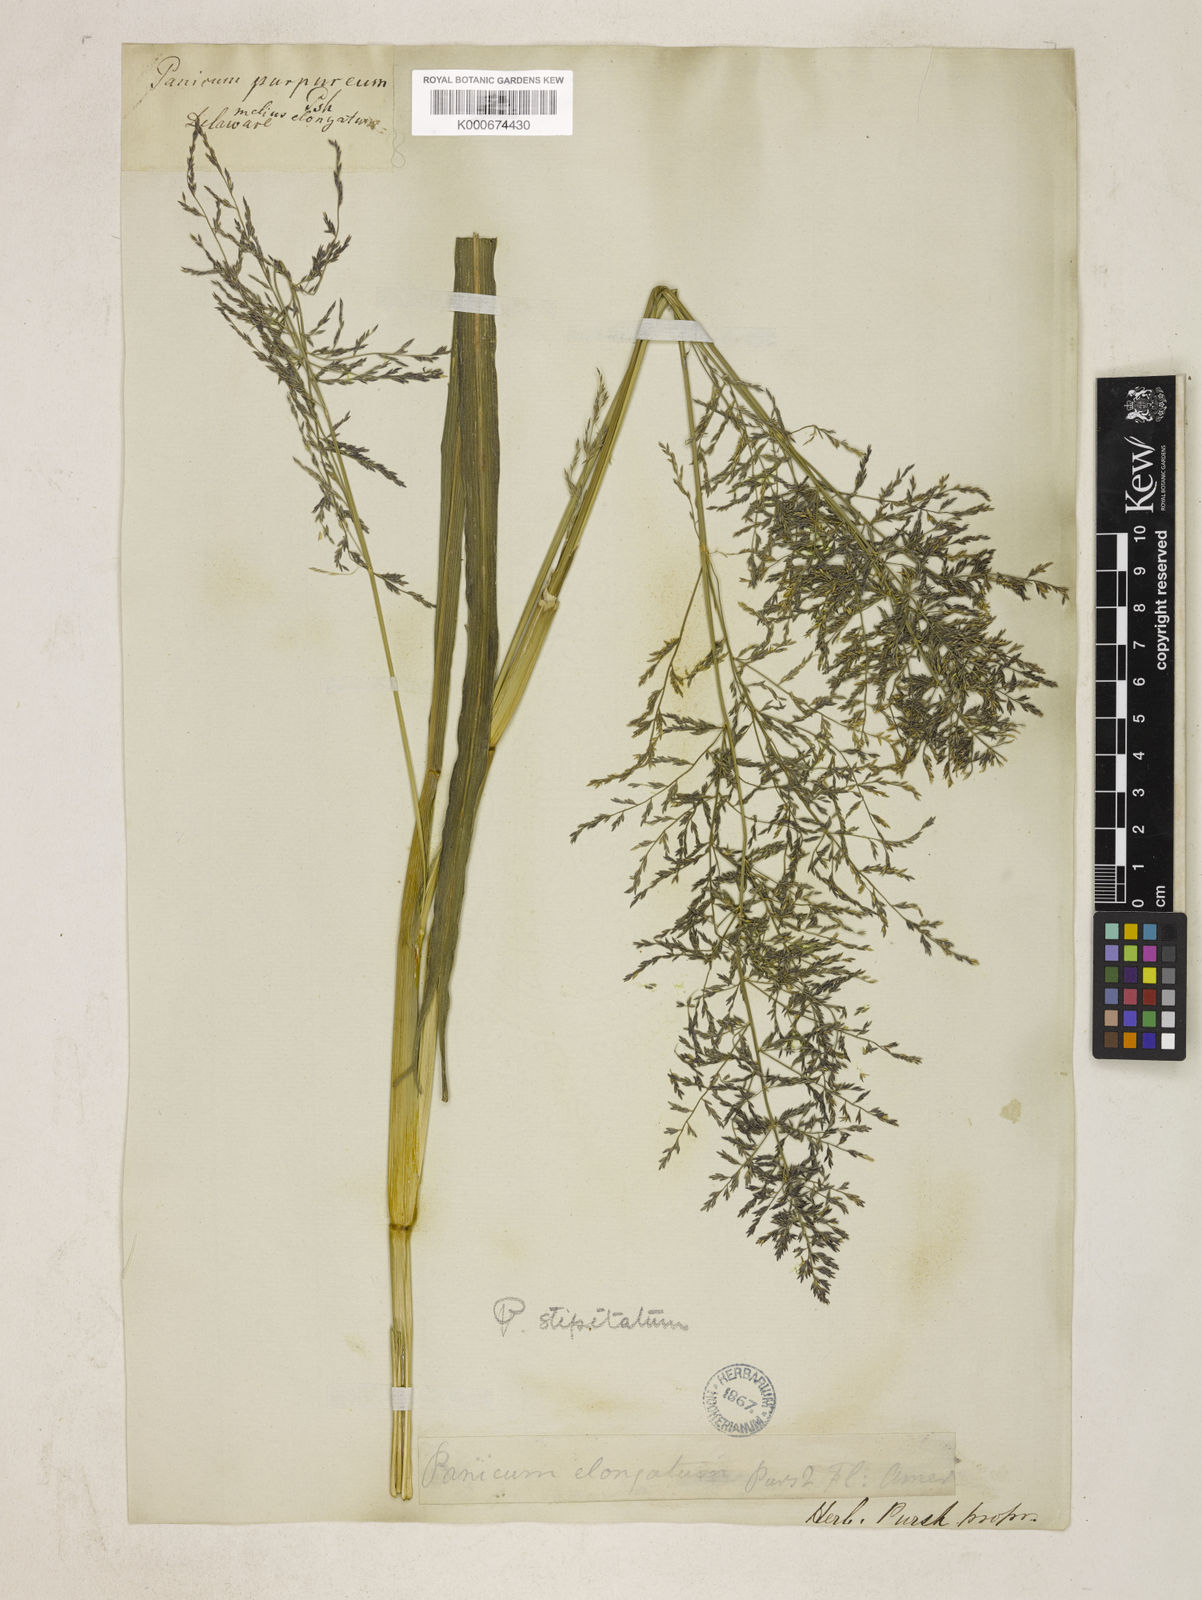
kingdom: Plantae
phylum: Tracheophyta
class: Liliopsida
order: Poales
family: Poaceae
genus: Coleataenia
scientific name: Coleataenia pulchra
